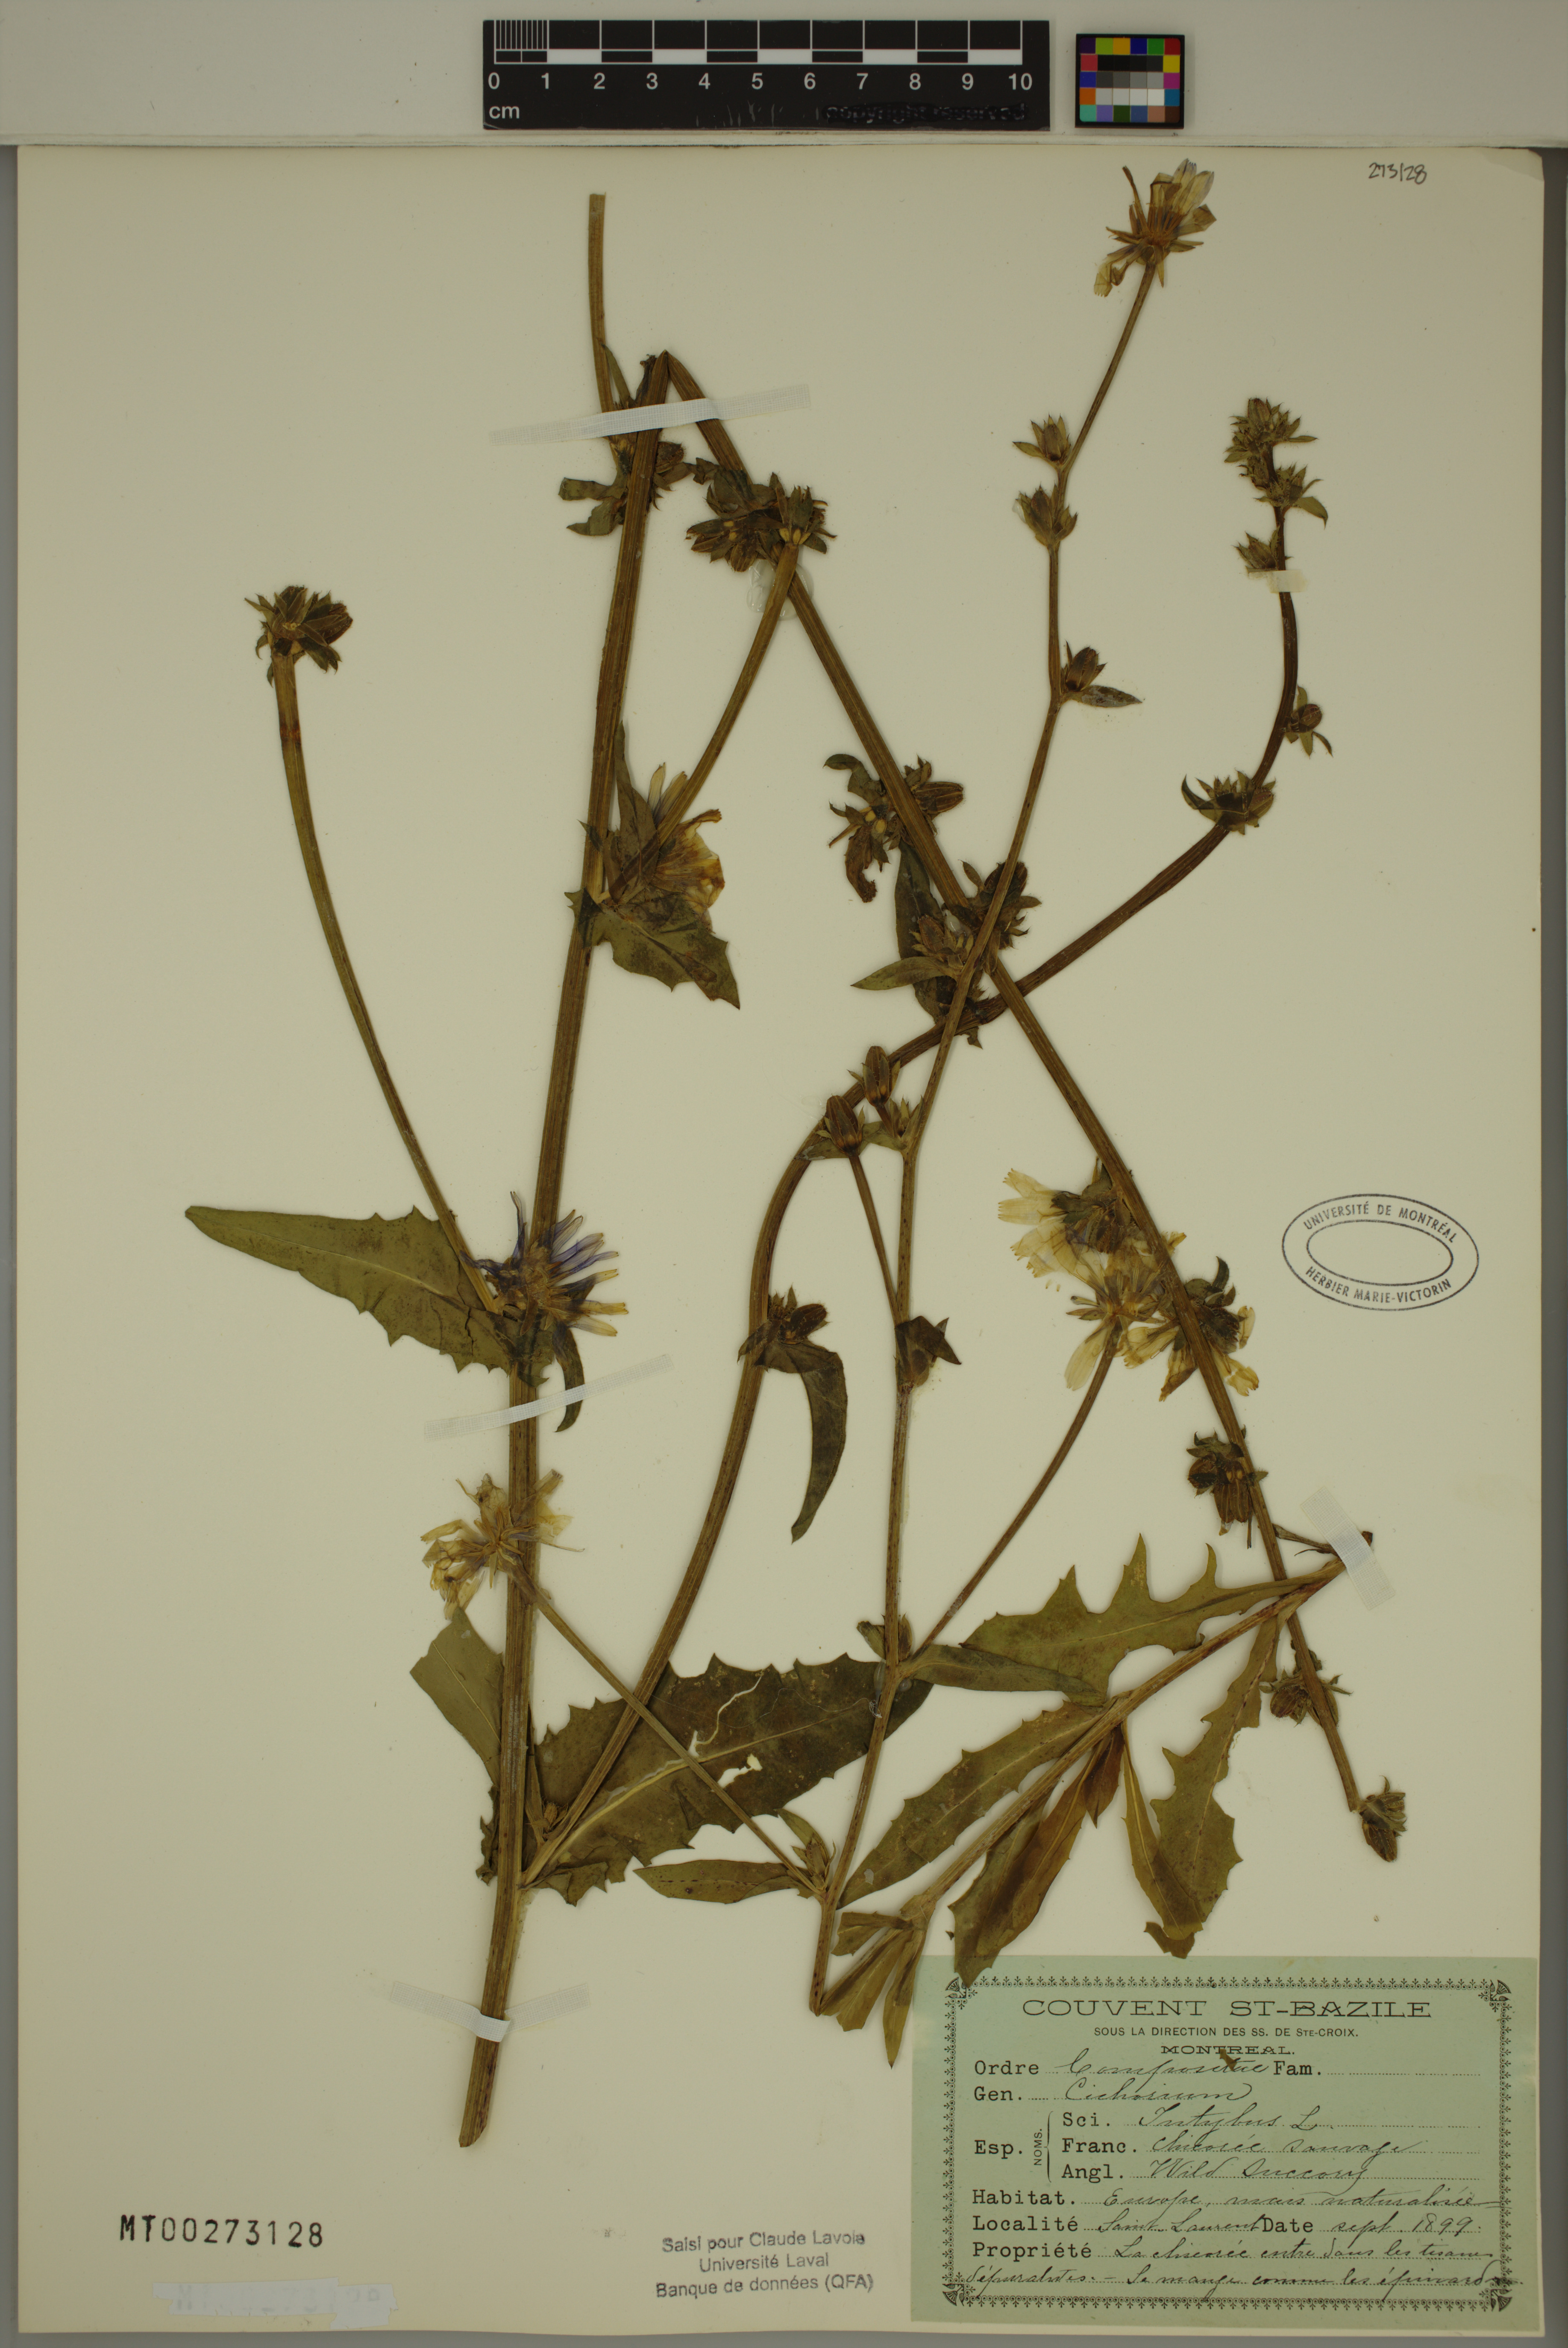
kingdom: Plantae
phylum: Tracheophyta
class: Magnoliopsida
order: Asterales
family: Asteraceae
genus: Cichorium
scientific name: Cichorium intybus
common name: Chicory
